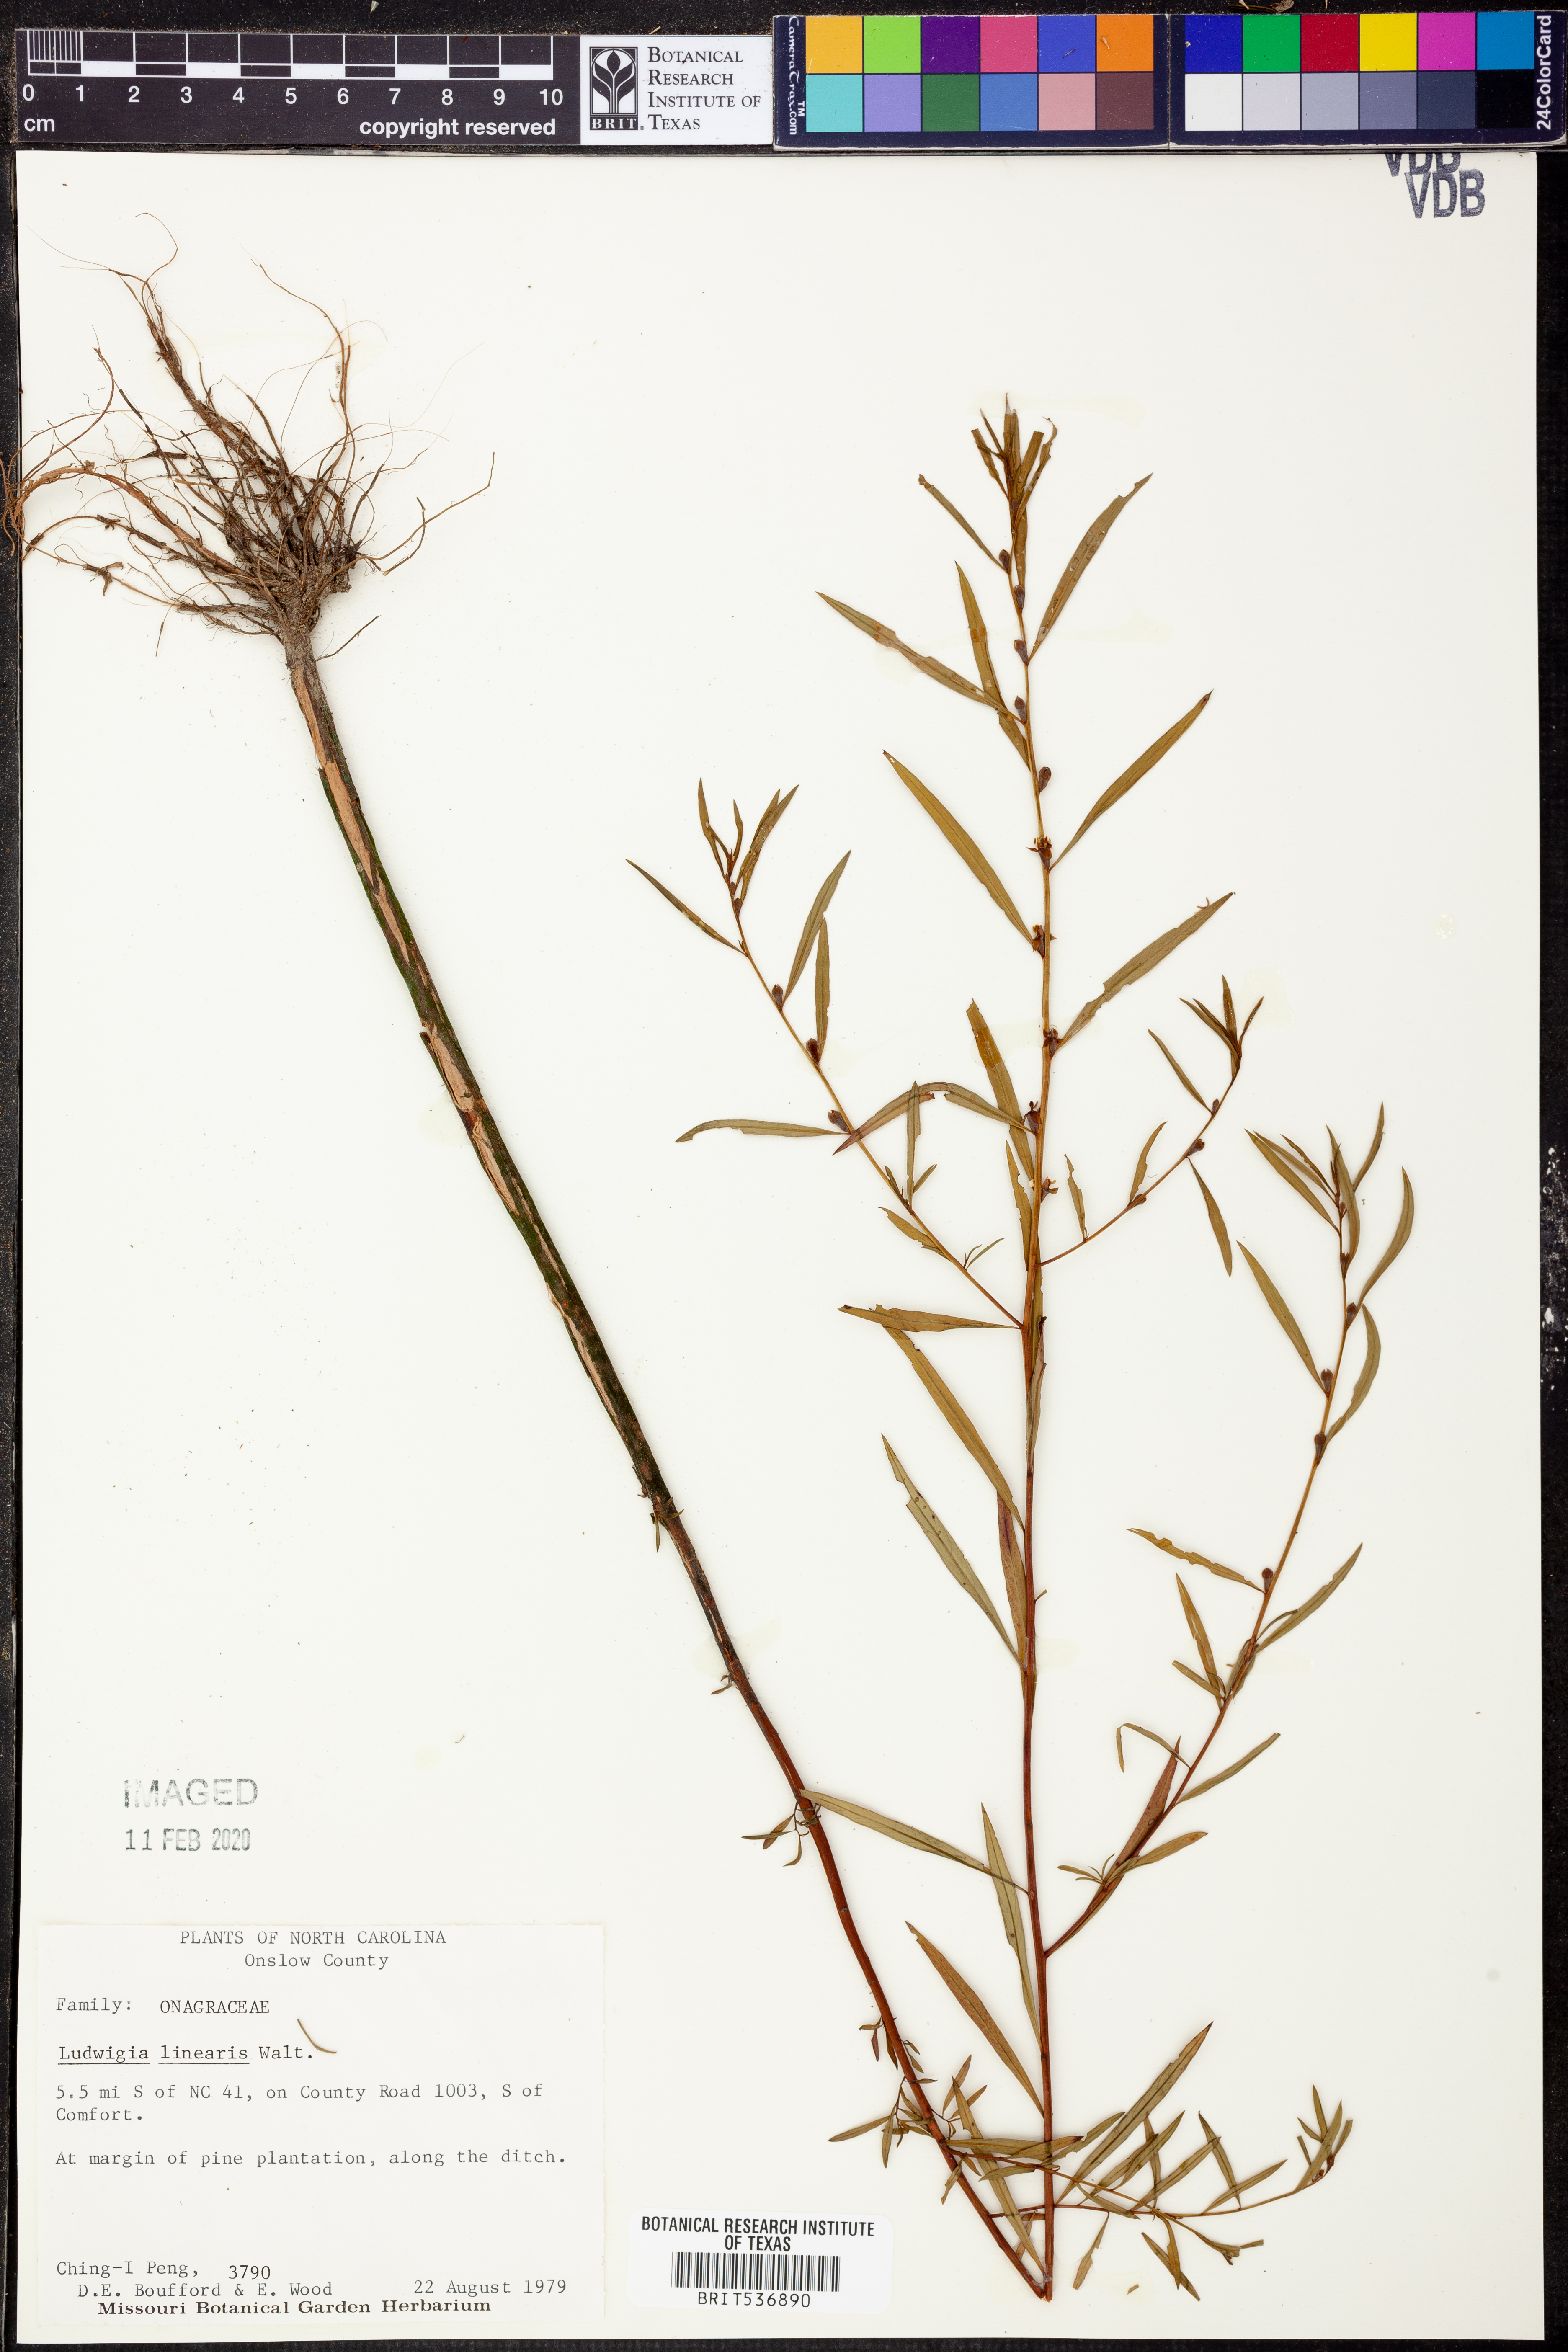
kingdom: Plantae
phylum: Tracheophyta
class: Magnoliopsida
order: Myrtales
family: Onagraceae
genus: Ludwigia
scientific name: Ludwigia linearis
